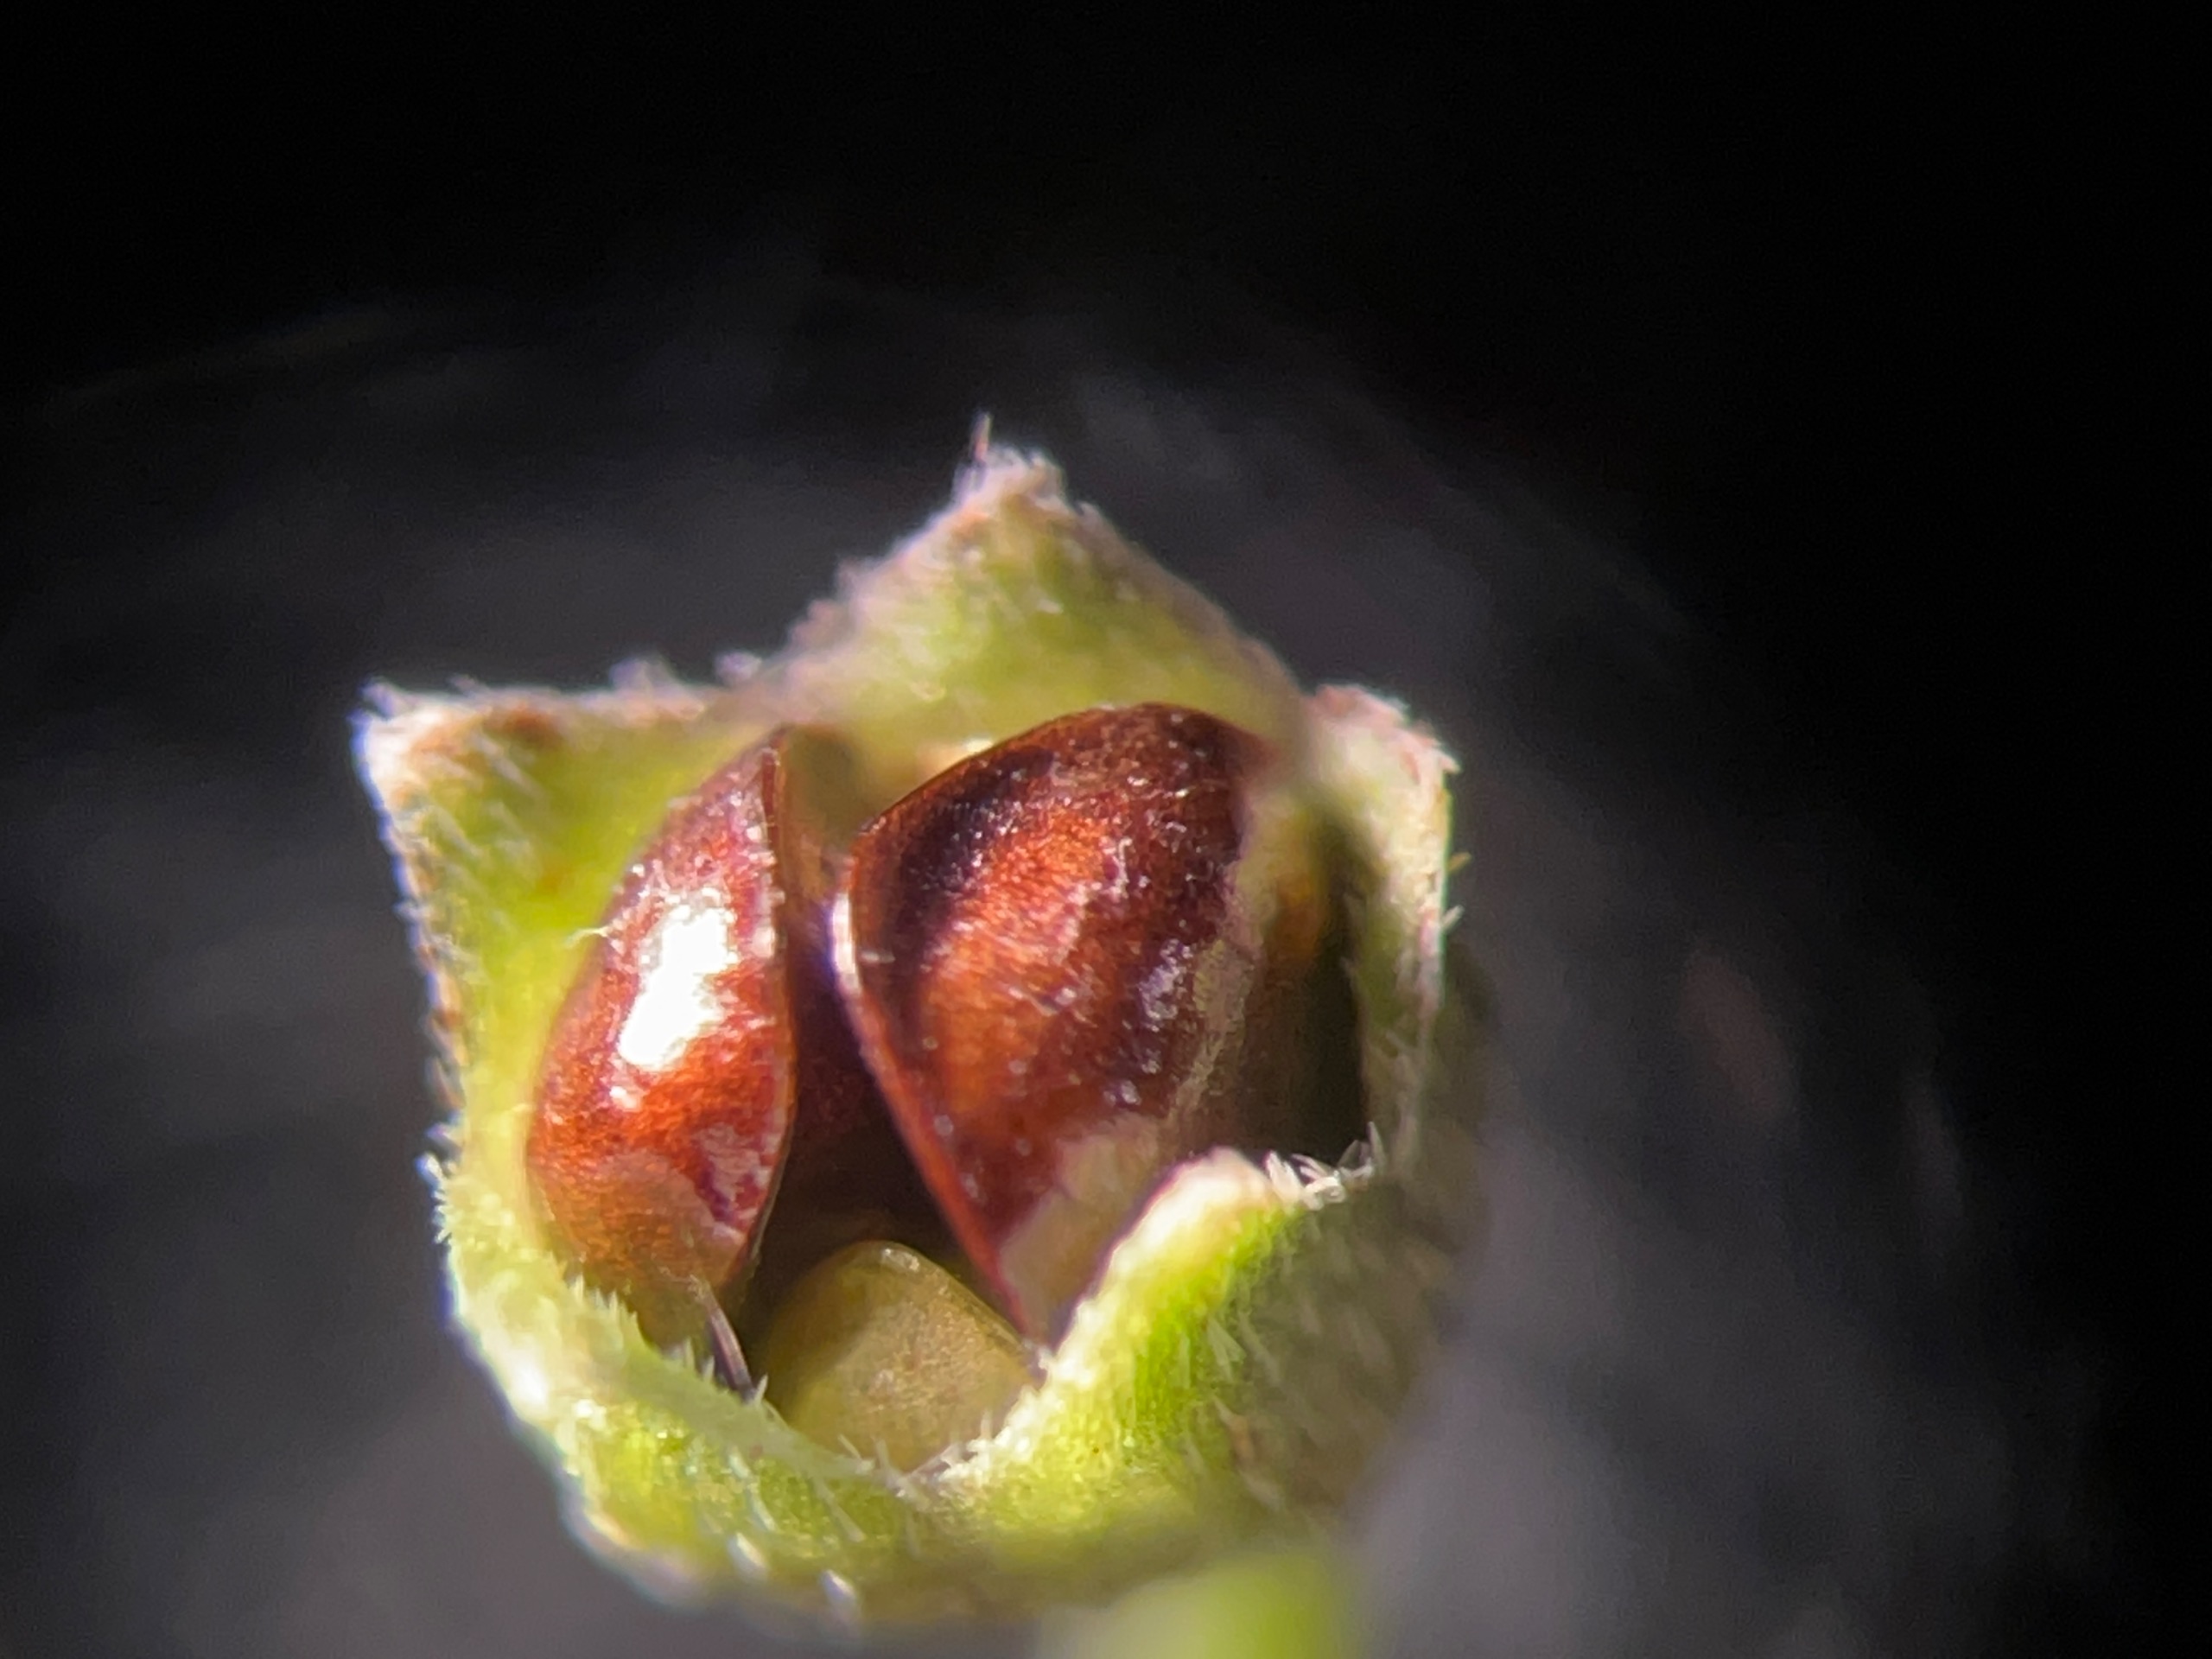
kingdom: Animalia
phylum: Arthropoda
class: Insecta
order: Diptera
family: Cecidomyiidae
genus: Dasineura
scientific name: Dasineura fructicola
